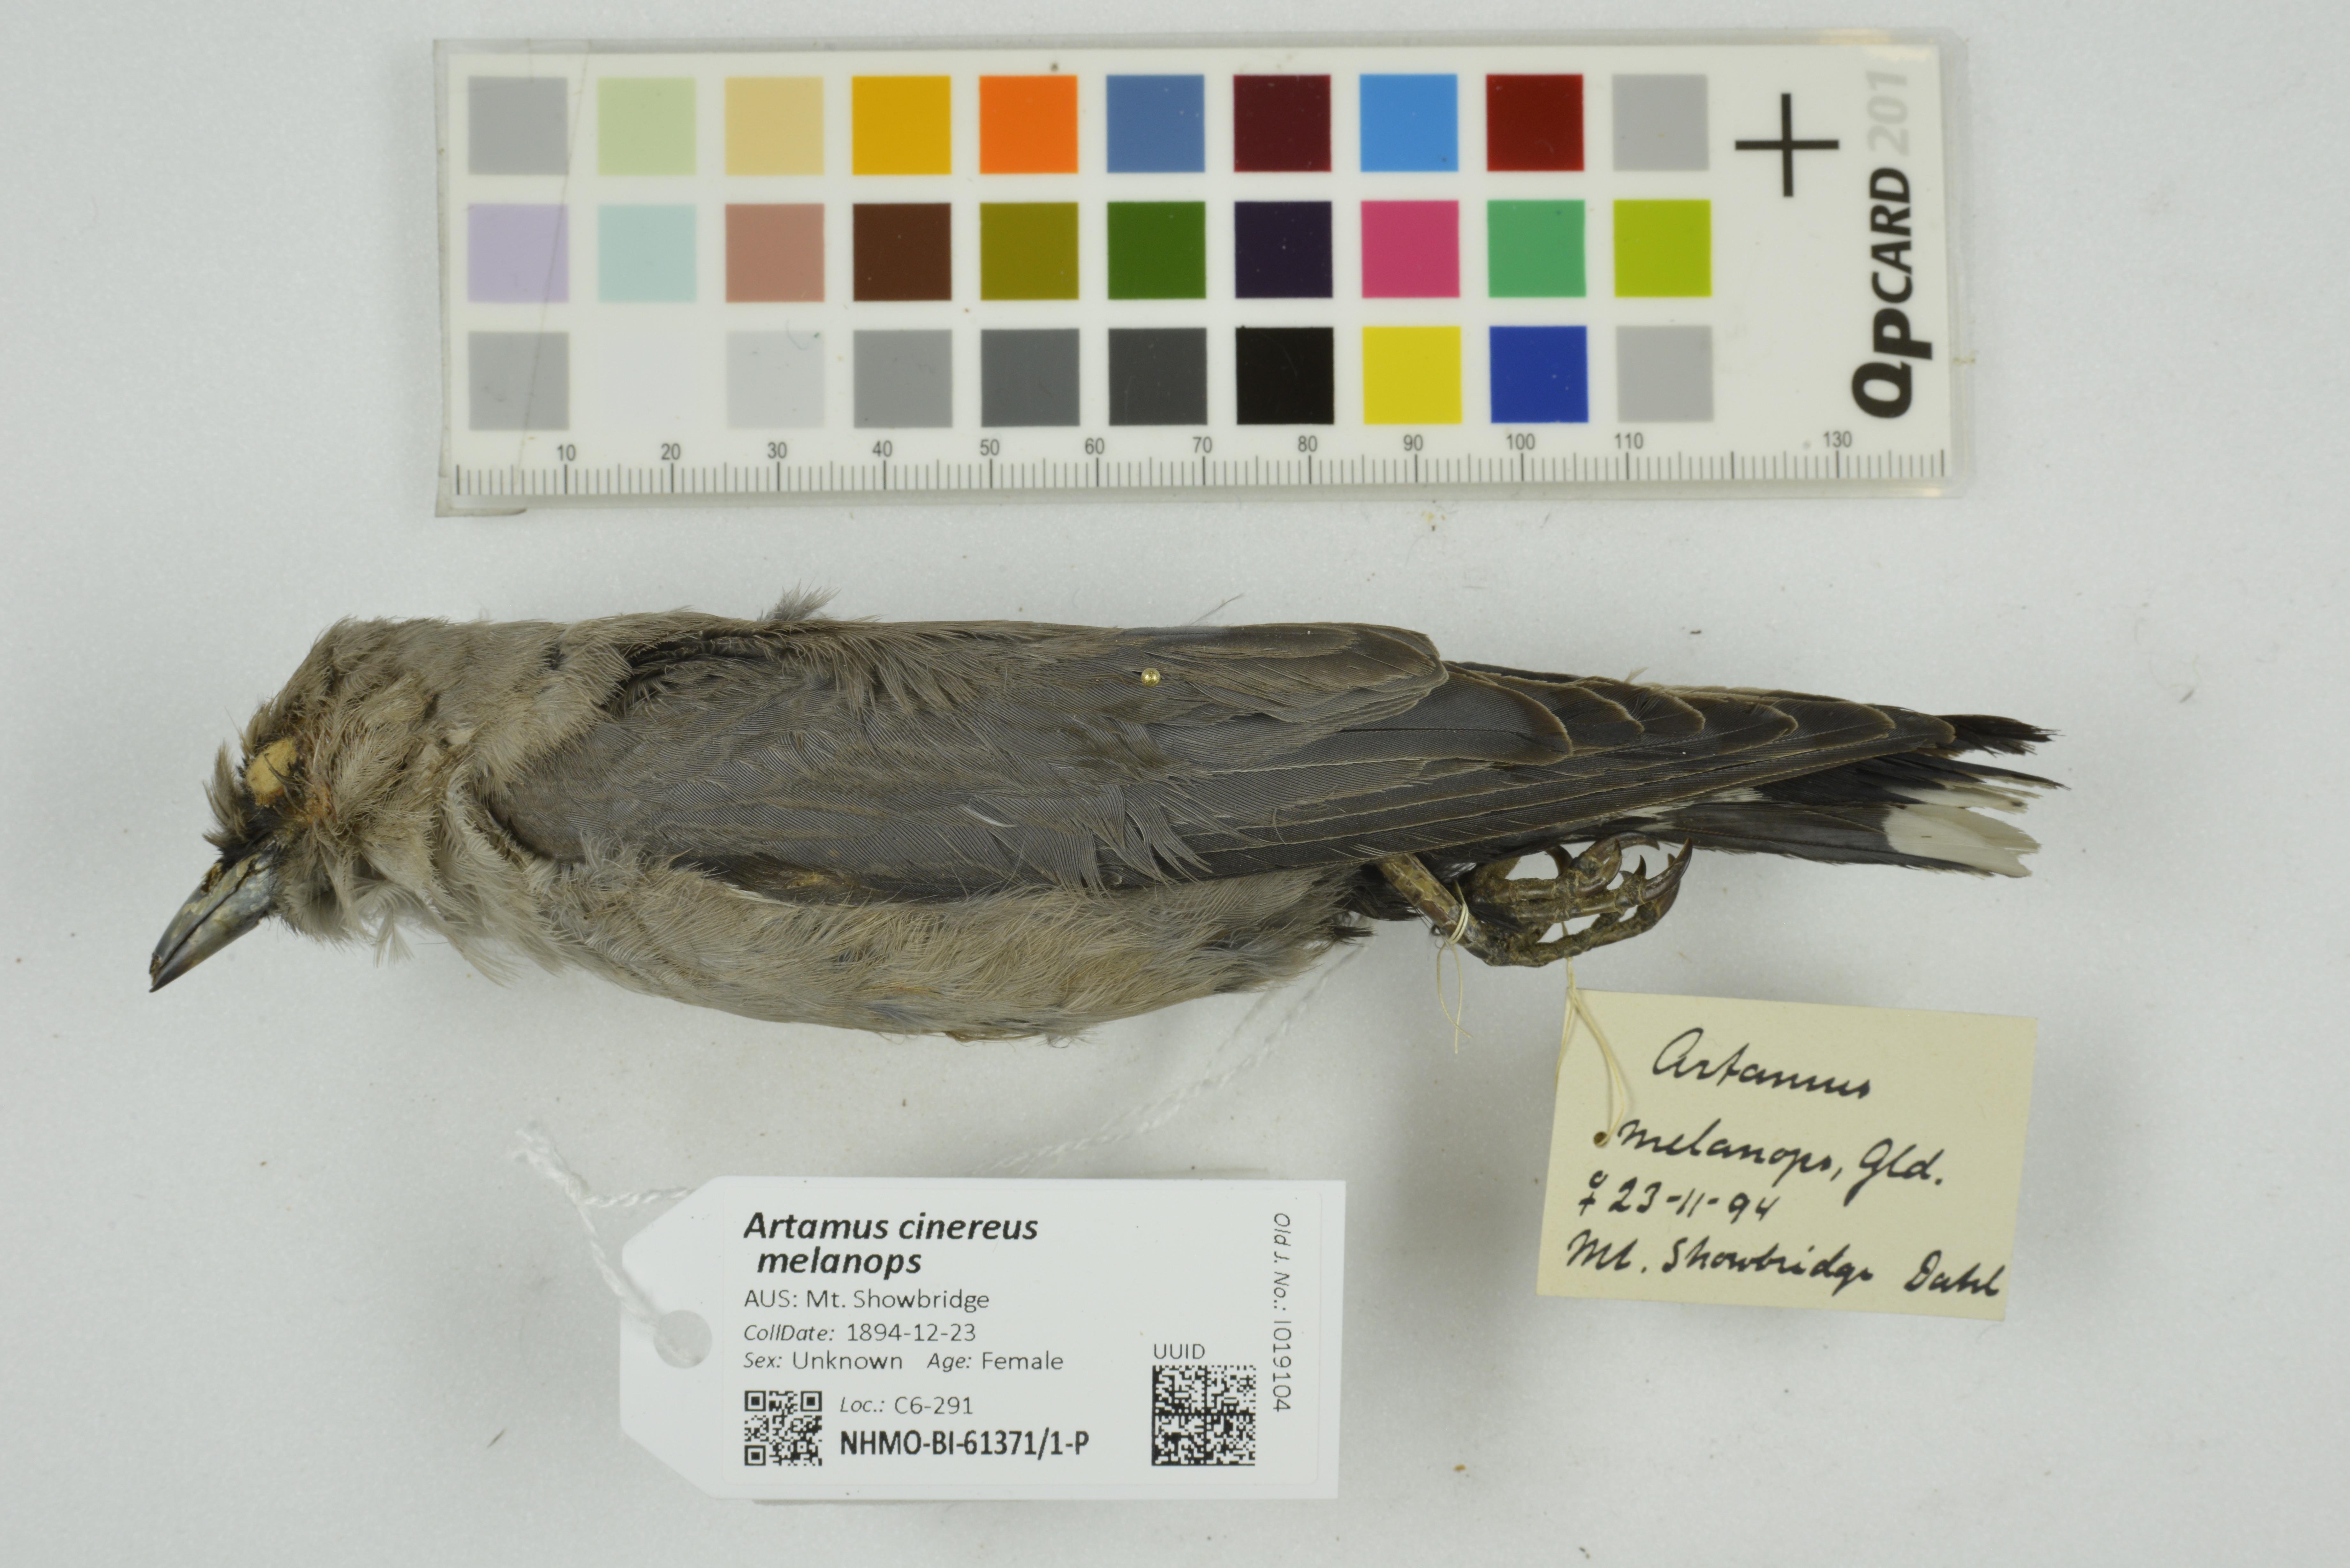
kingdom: Animalia
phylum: Chordata
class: Aves
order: Passeriformes
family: Artamidae
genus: Artamus
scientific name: Artamus cinereus
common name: Black-faced woodswallow
